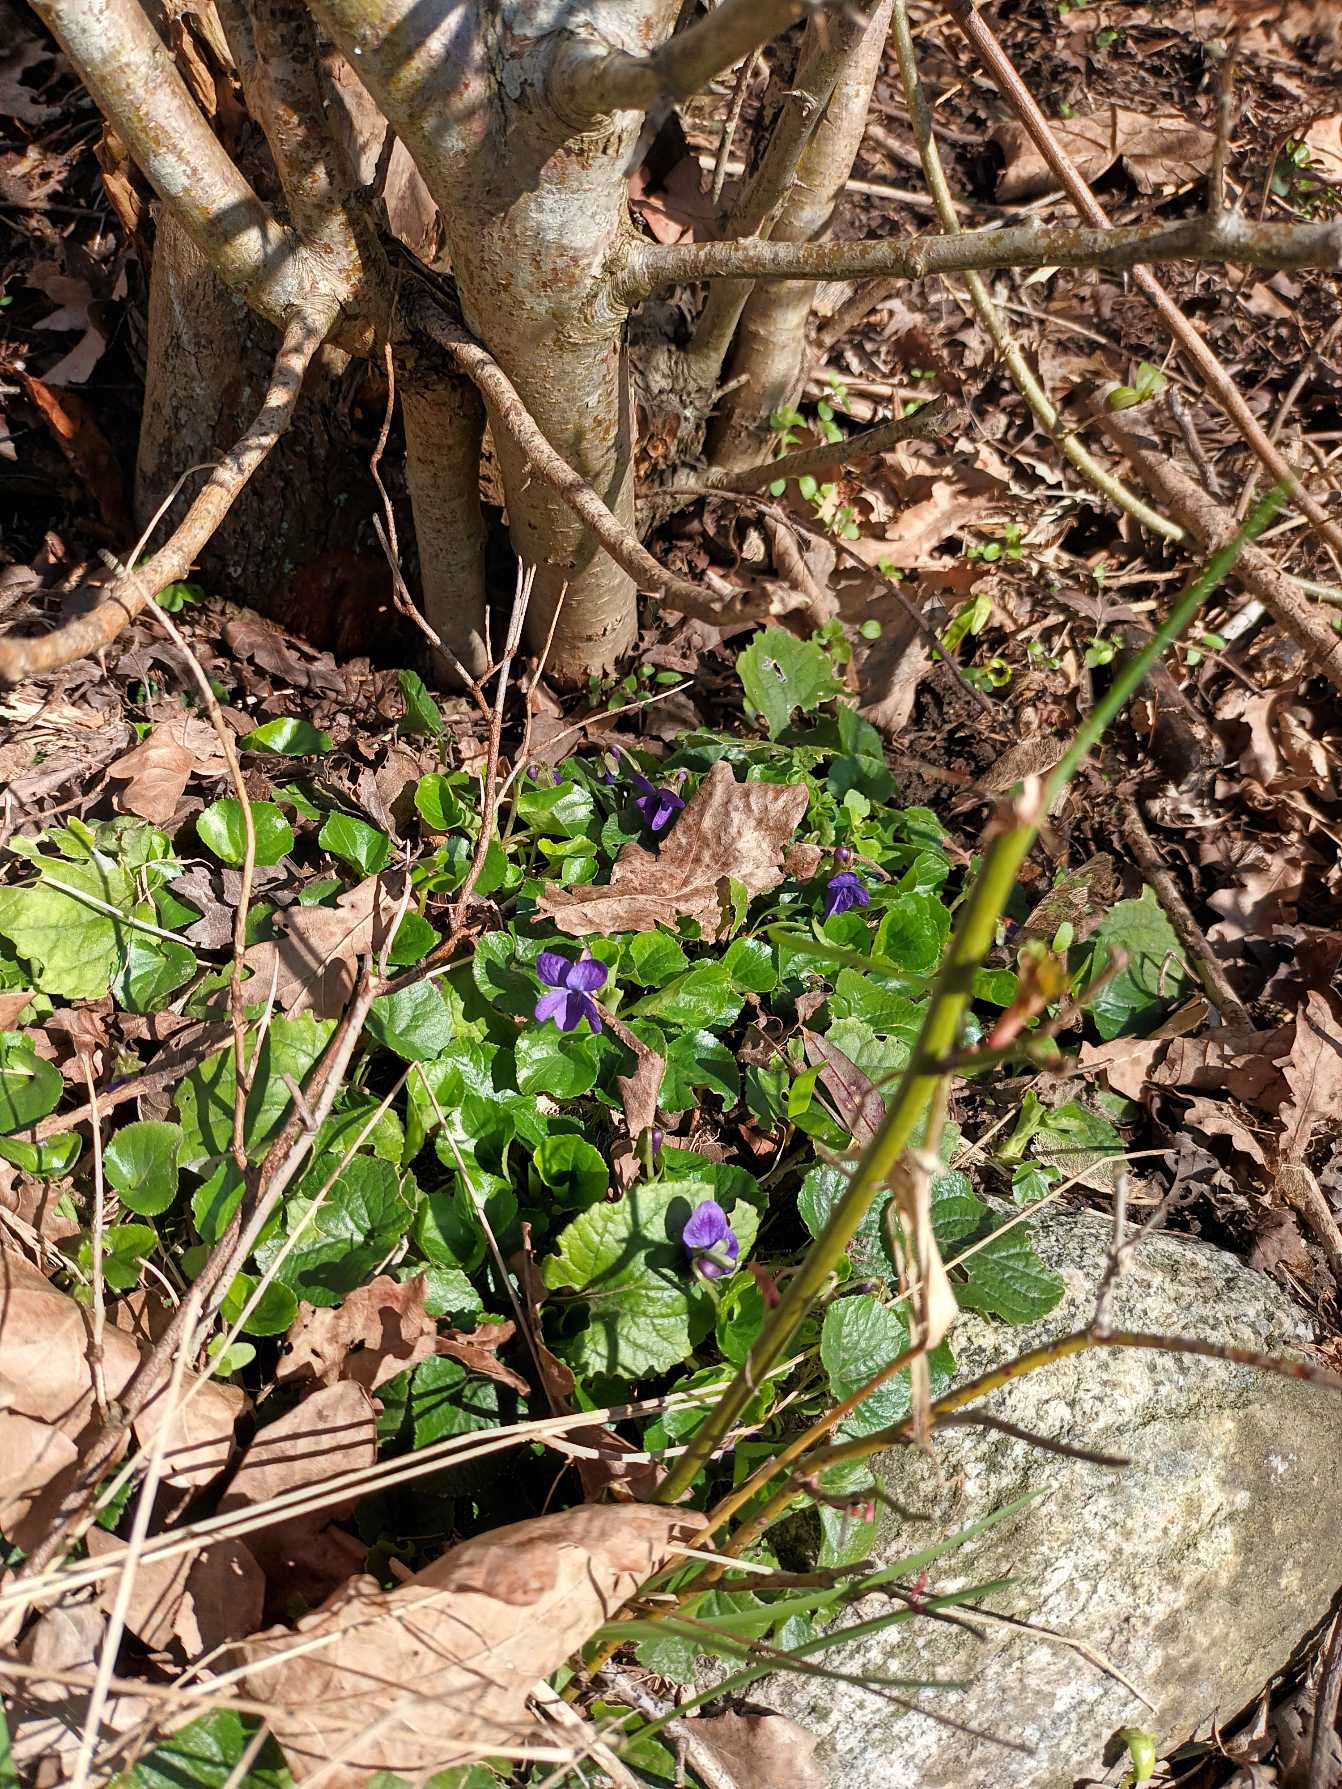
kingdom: Plantae
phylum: Tracheophyta
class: Magnoliopsida
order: Malpighiales
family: Violaceae
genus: Viola
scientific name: Viola odorata
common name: Marts-viol
